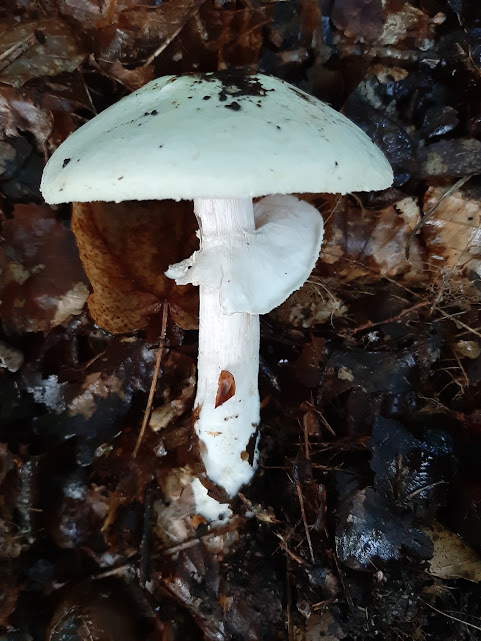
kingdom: Fungi
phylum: Basidiomycota
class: Agaricomycetes
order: Agaricales
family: Amanitaceae
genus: Amanita
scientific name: Amanita virosa
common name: snehvid fluesvamp
